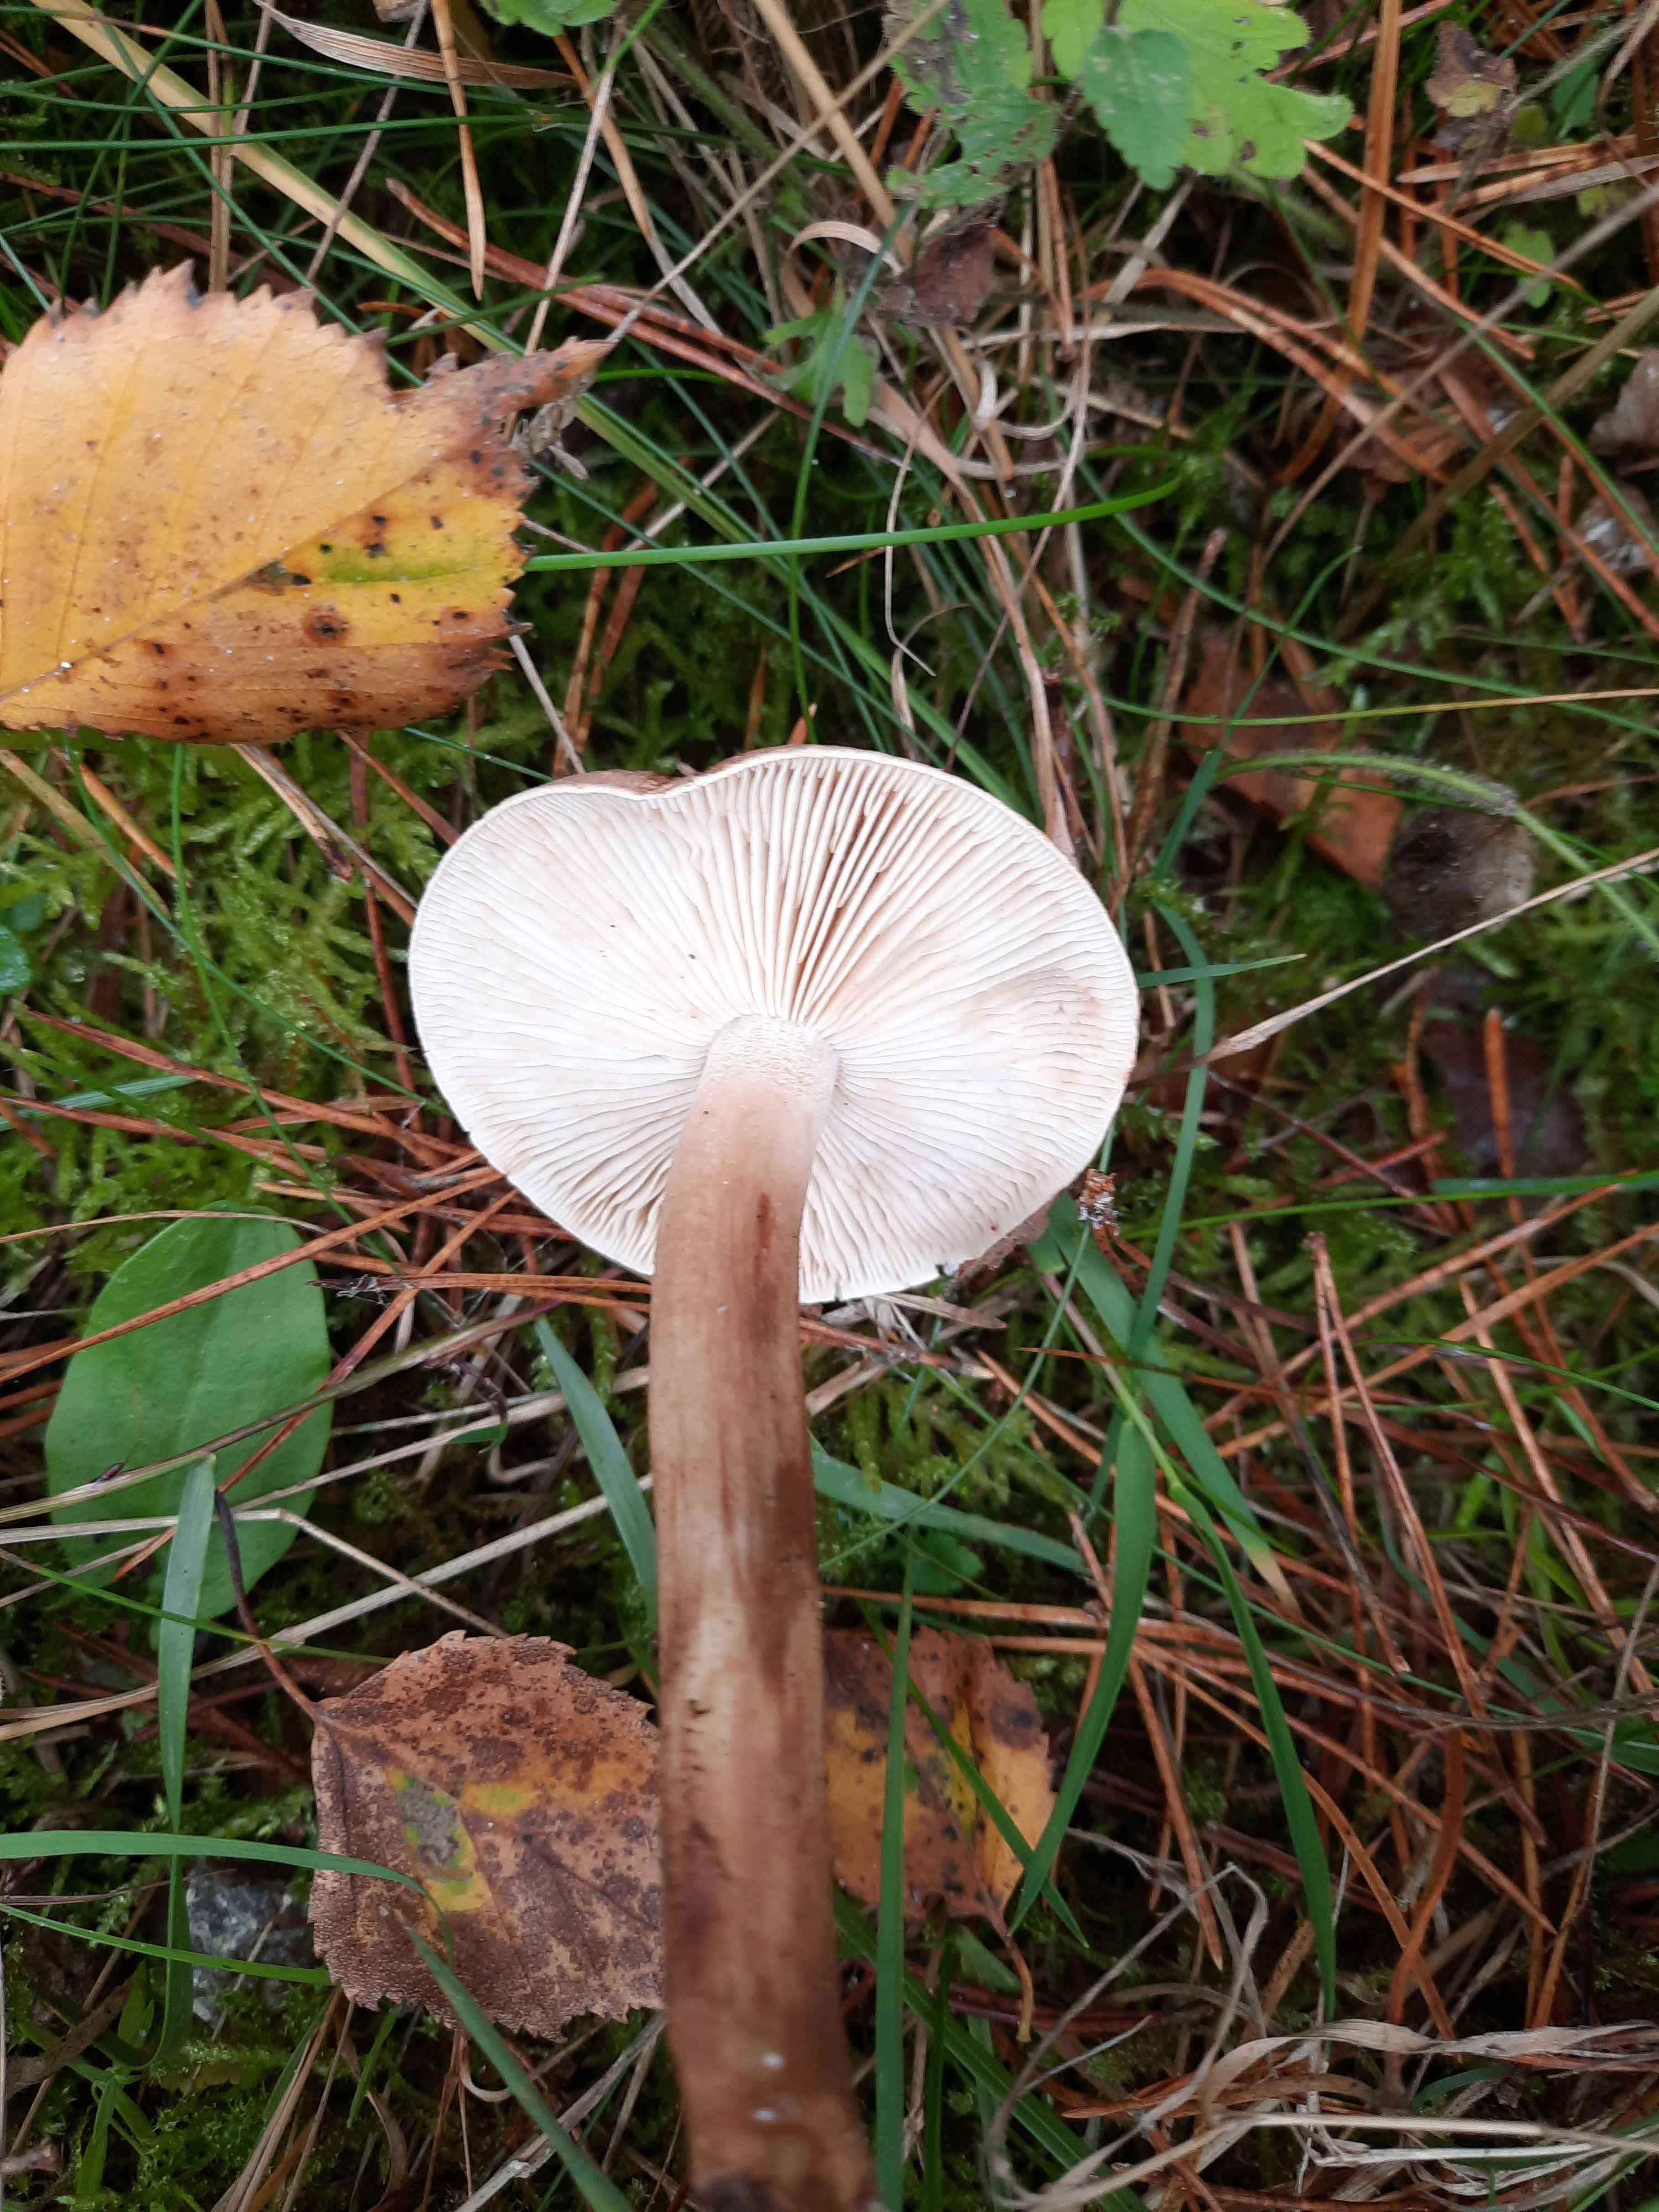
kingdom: Fungi
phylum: Basidiomycota
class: Agaricomycetes
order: Agaricales
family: Tricholomataceae
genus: Tricholoma
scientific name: Tricholoma imbricatum
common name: skællet ridderhat
